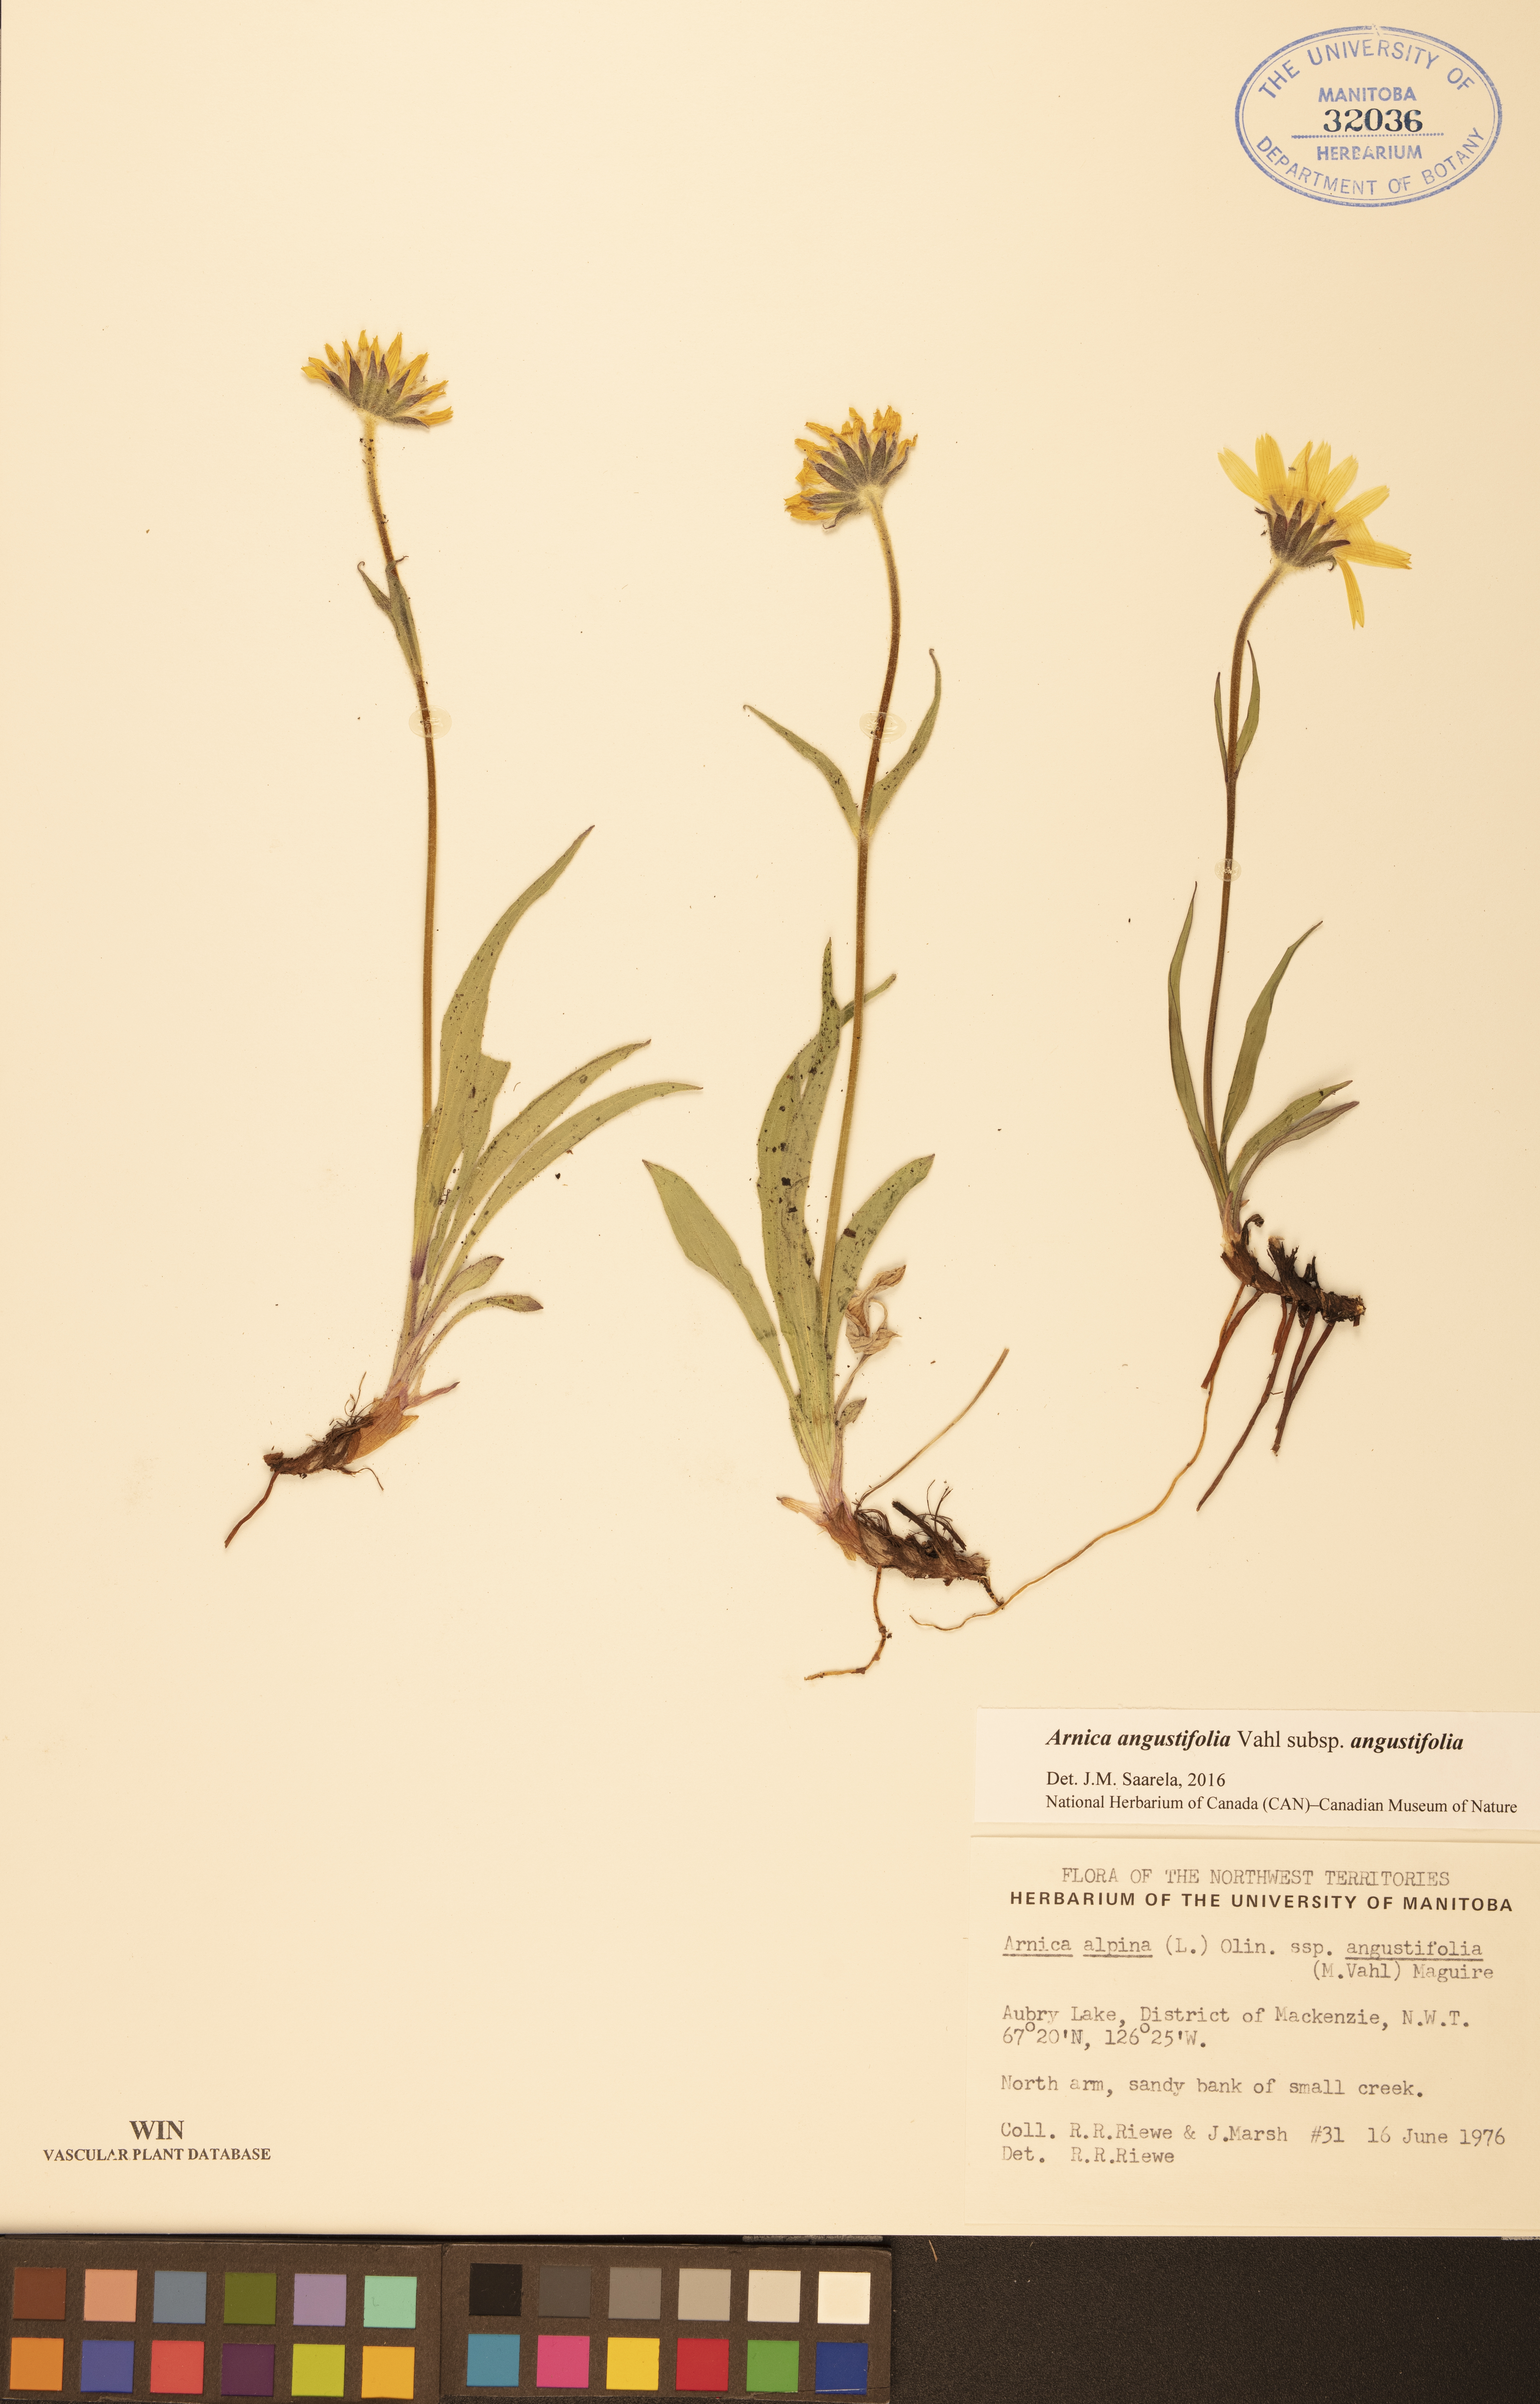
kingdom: Plantae
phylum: Tracheophyta
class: Magnoliopsida
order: Asterales
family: Asteraceae
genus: Arnica
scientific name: Arnica angustifolia
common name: Arctic arnica
